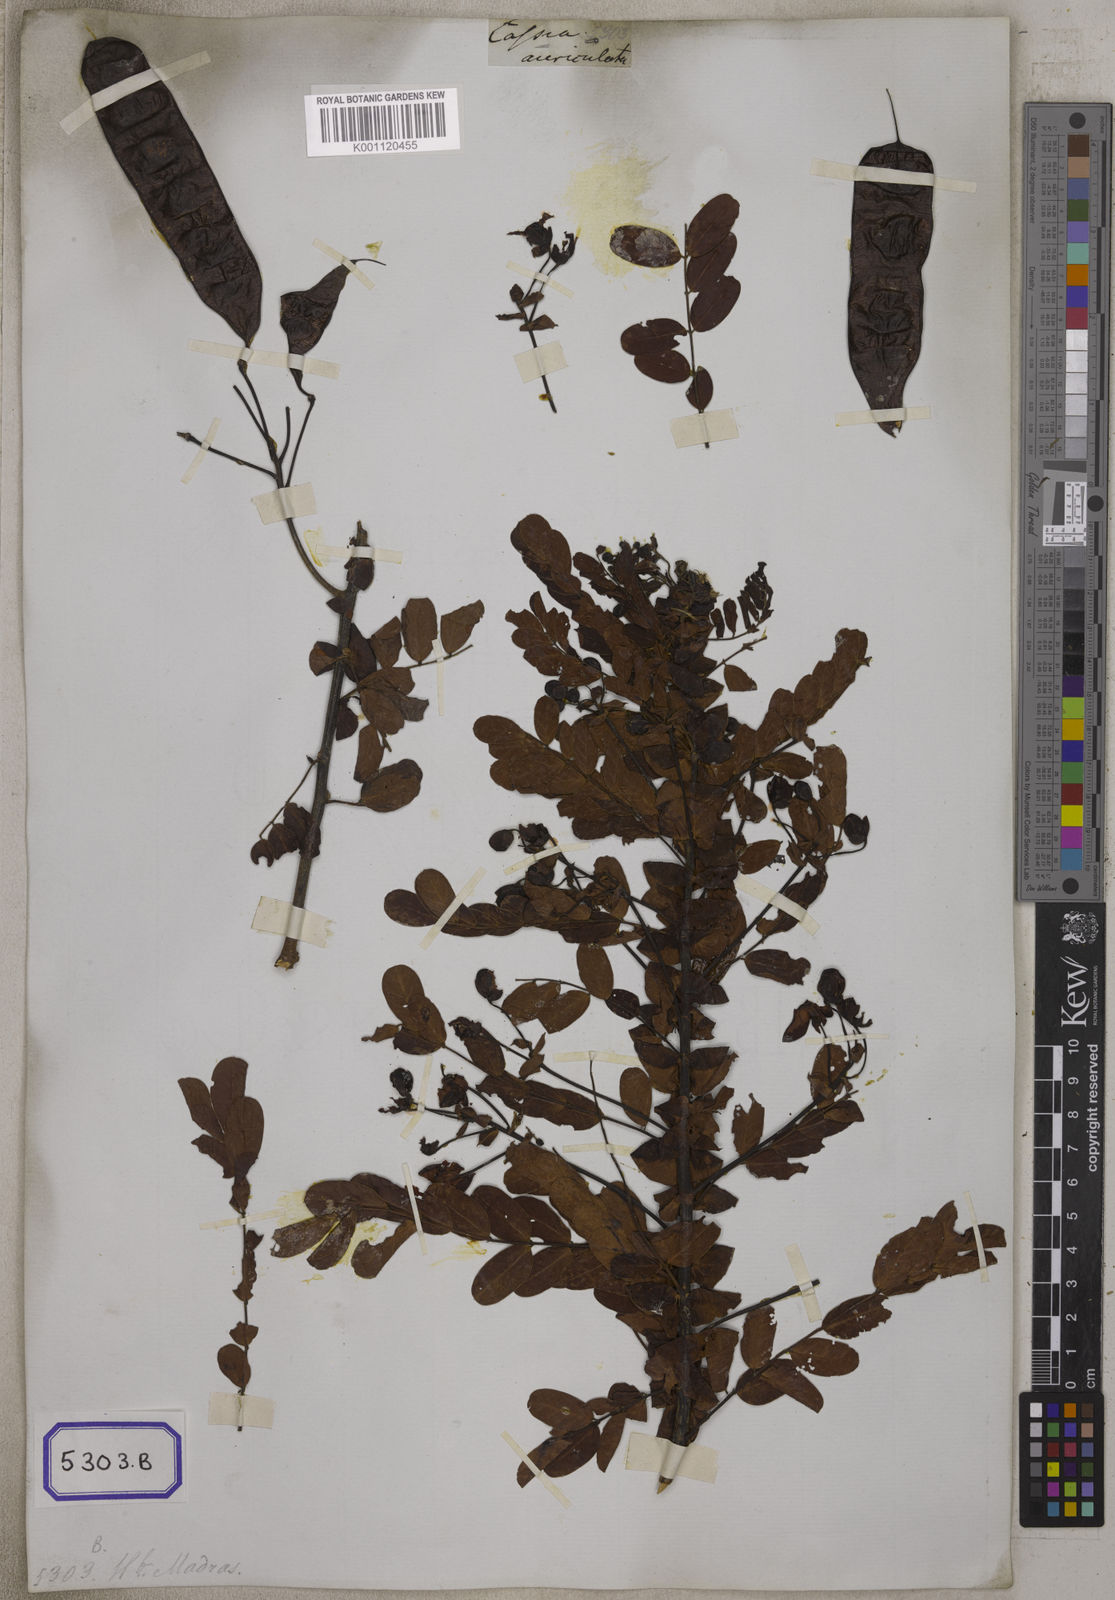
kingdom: Plantae
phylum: Tracheophyta
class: Magnoliopsida
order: Fabales
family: Fabaceae
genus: Senna
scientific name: Senna auriculata
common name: Tanner's cassia
